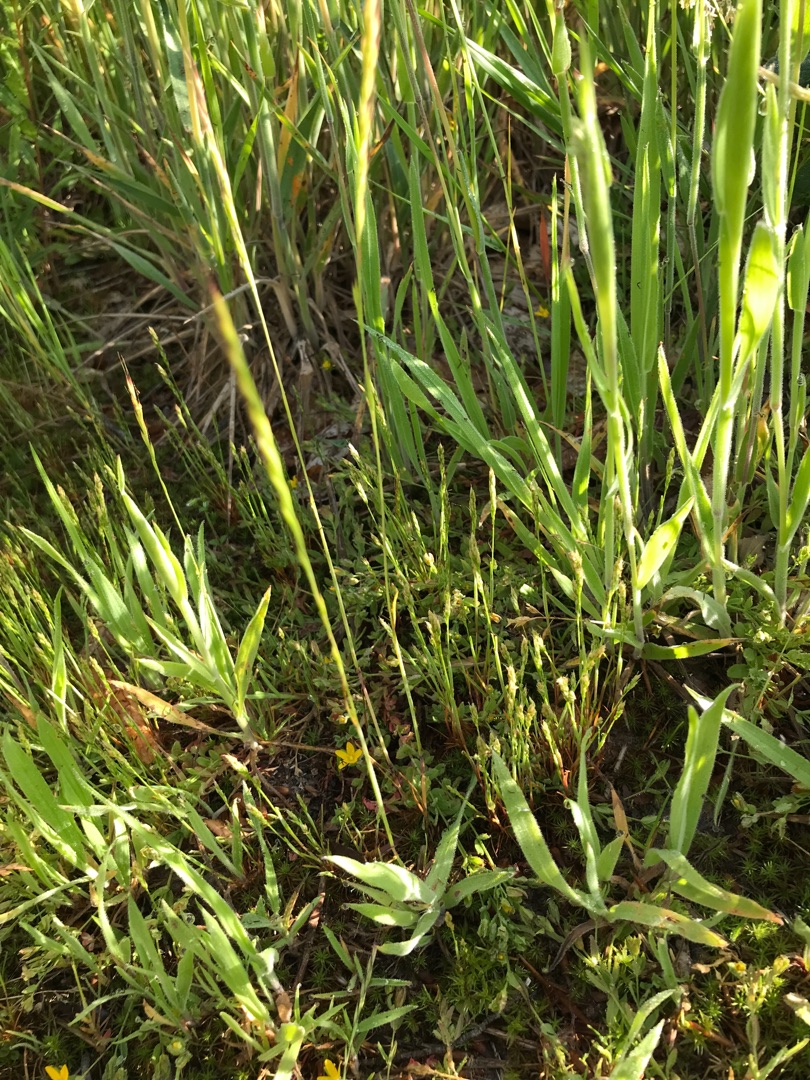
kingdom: Plantae
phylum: Tracheophyta
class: Liliopsida
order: Poales
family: Poaceae
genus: Aira
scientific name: Aira praecox
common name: Tidlig dværgbunke
